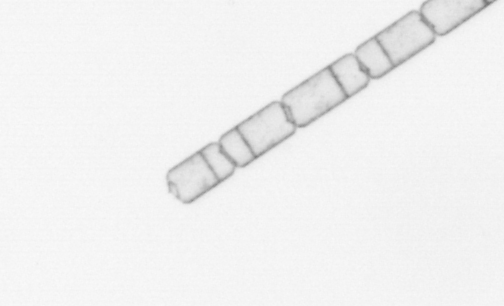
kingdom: Chromista
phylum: Ochrophyta
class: Bacillariophyceae
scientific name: Bacillariophyceae
